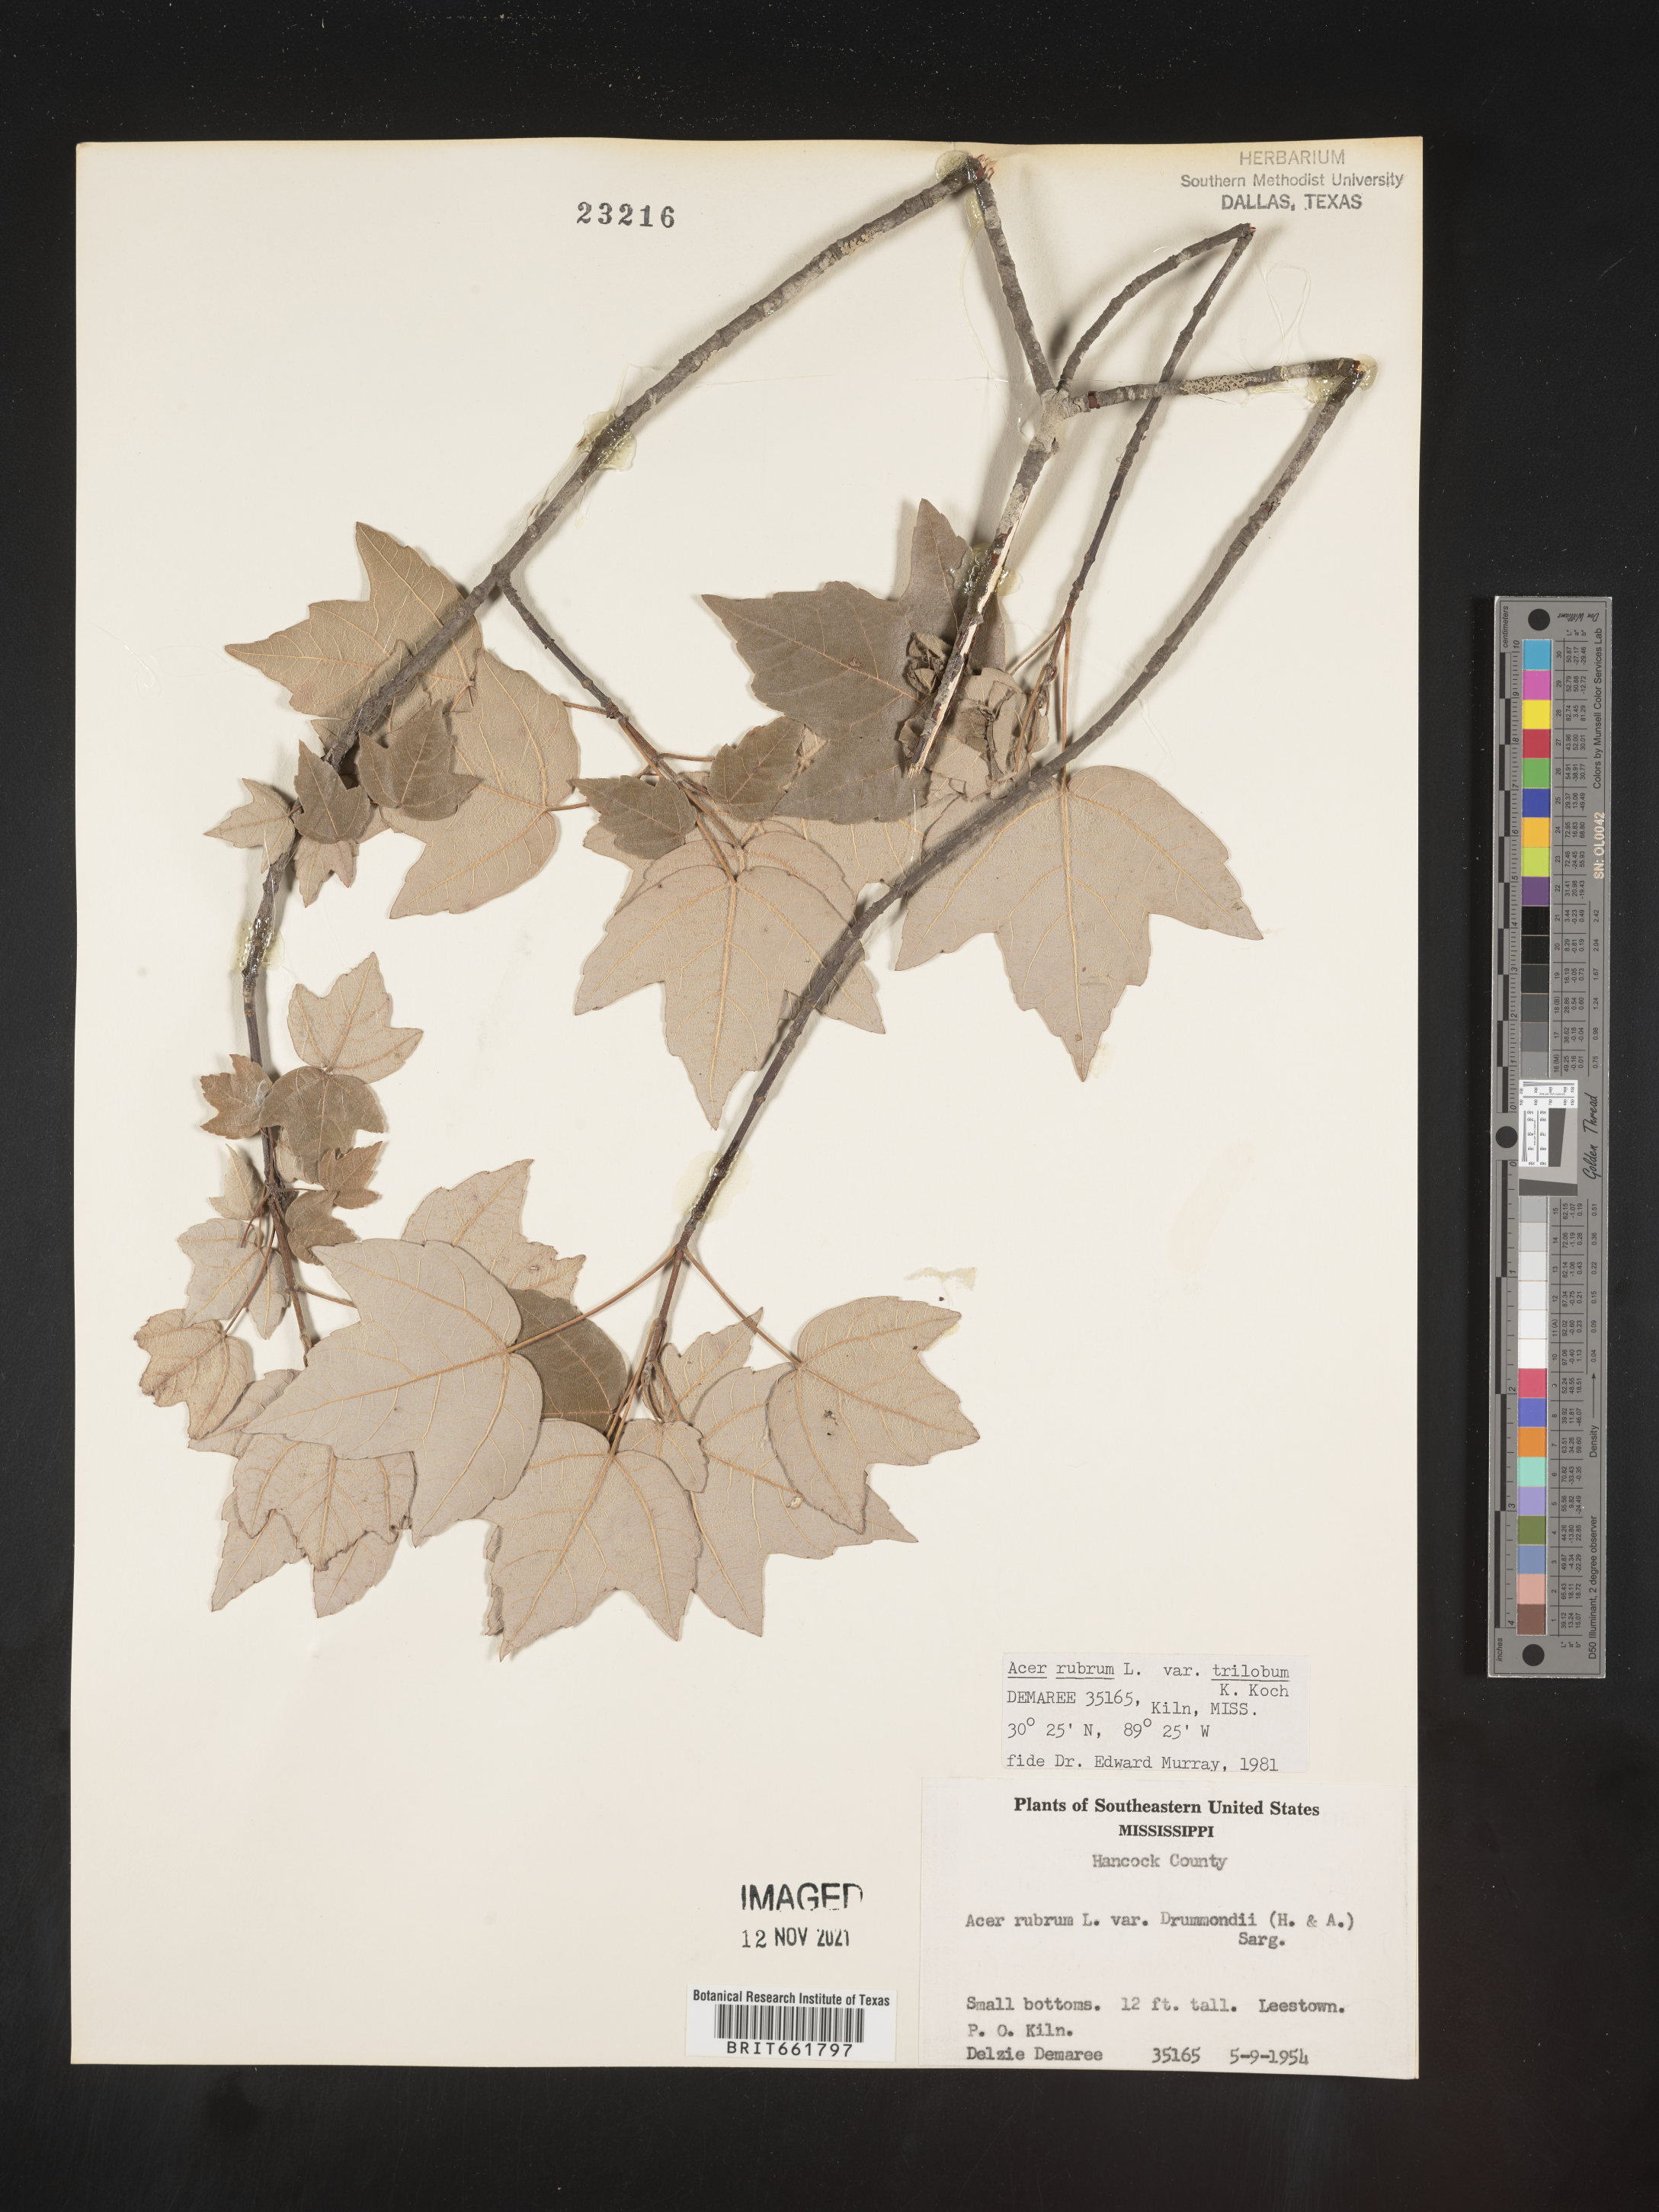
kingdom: Plantae
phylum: Tracheophyta
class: Magnoliopsida
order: Sapindales
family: Sapindaceae
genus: Acer
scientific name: Acer rubrum
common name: Red maple
